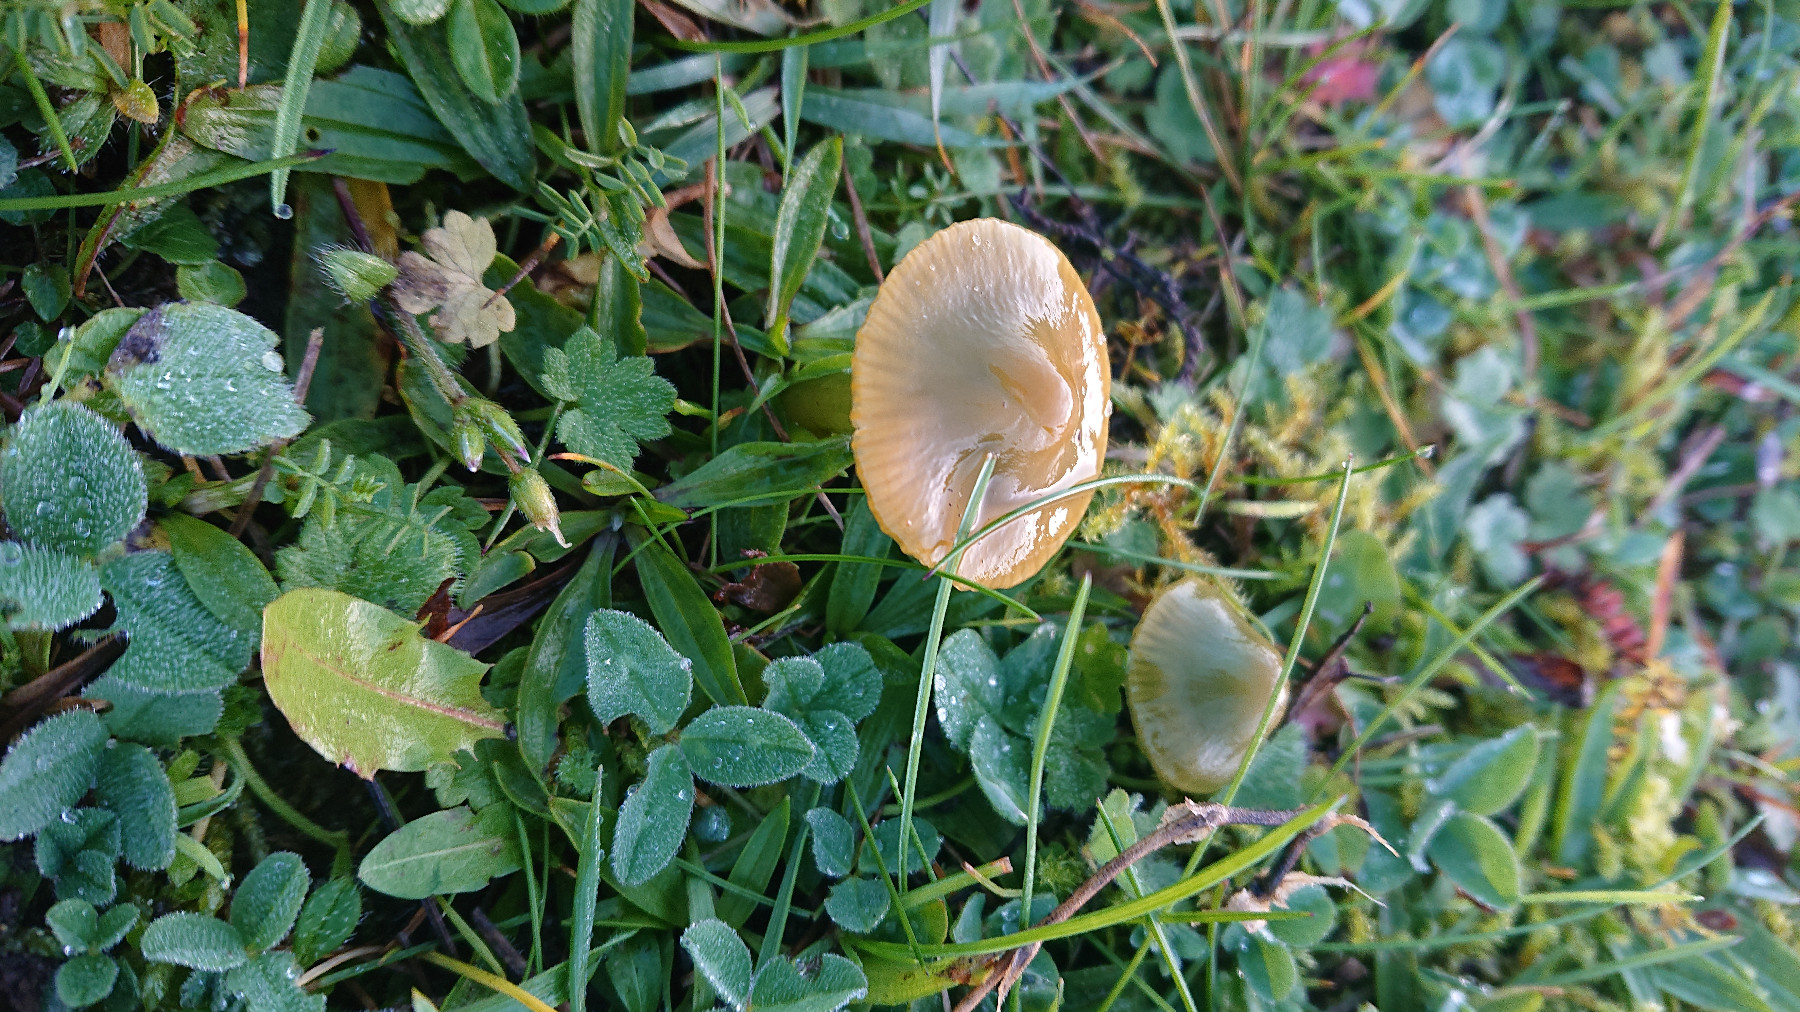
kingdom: Fungi
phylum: Basidiomycota
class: Agaricomycetes
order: Agaricales
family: Hygrophoraceae
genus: Gliophorus
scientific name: Gliophorus psittacinus
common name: papegøje-vokshat
